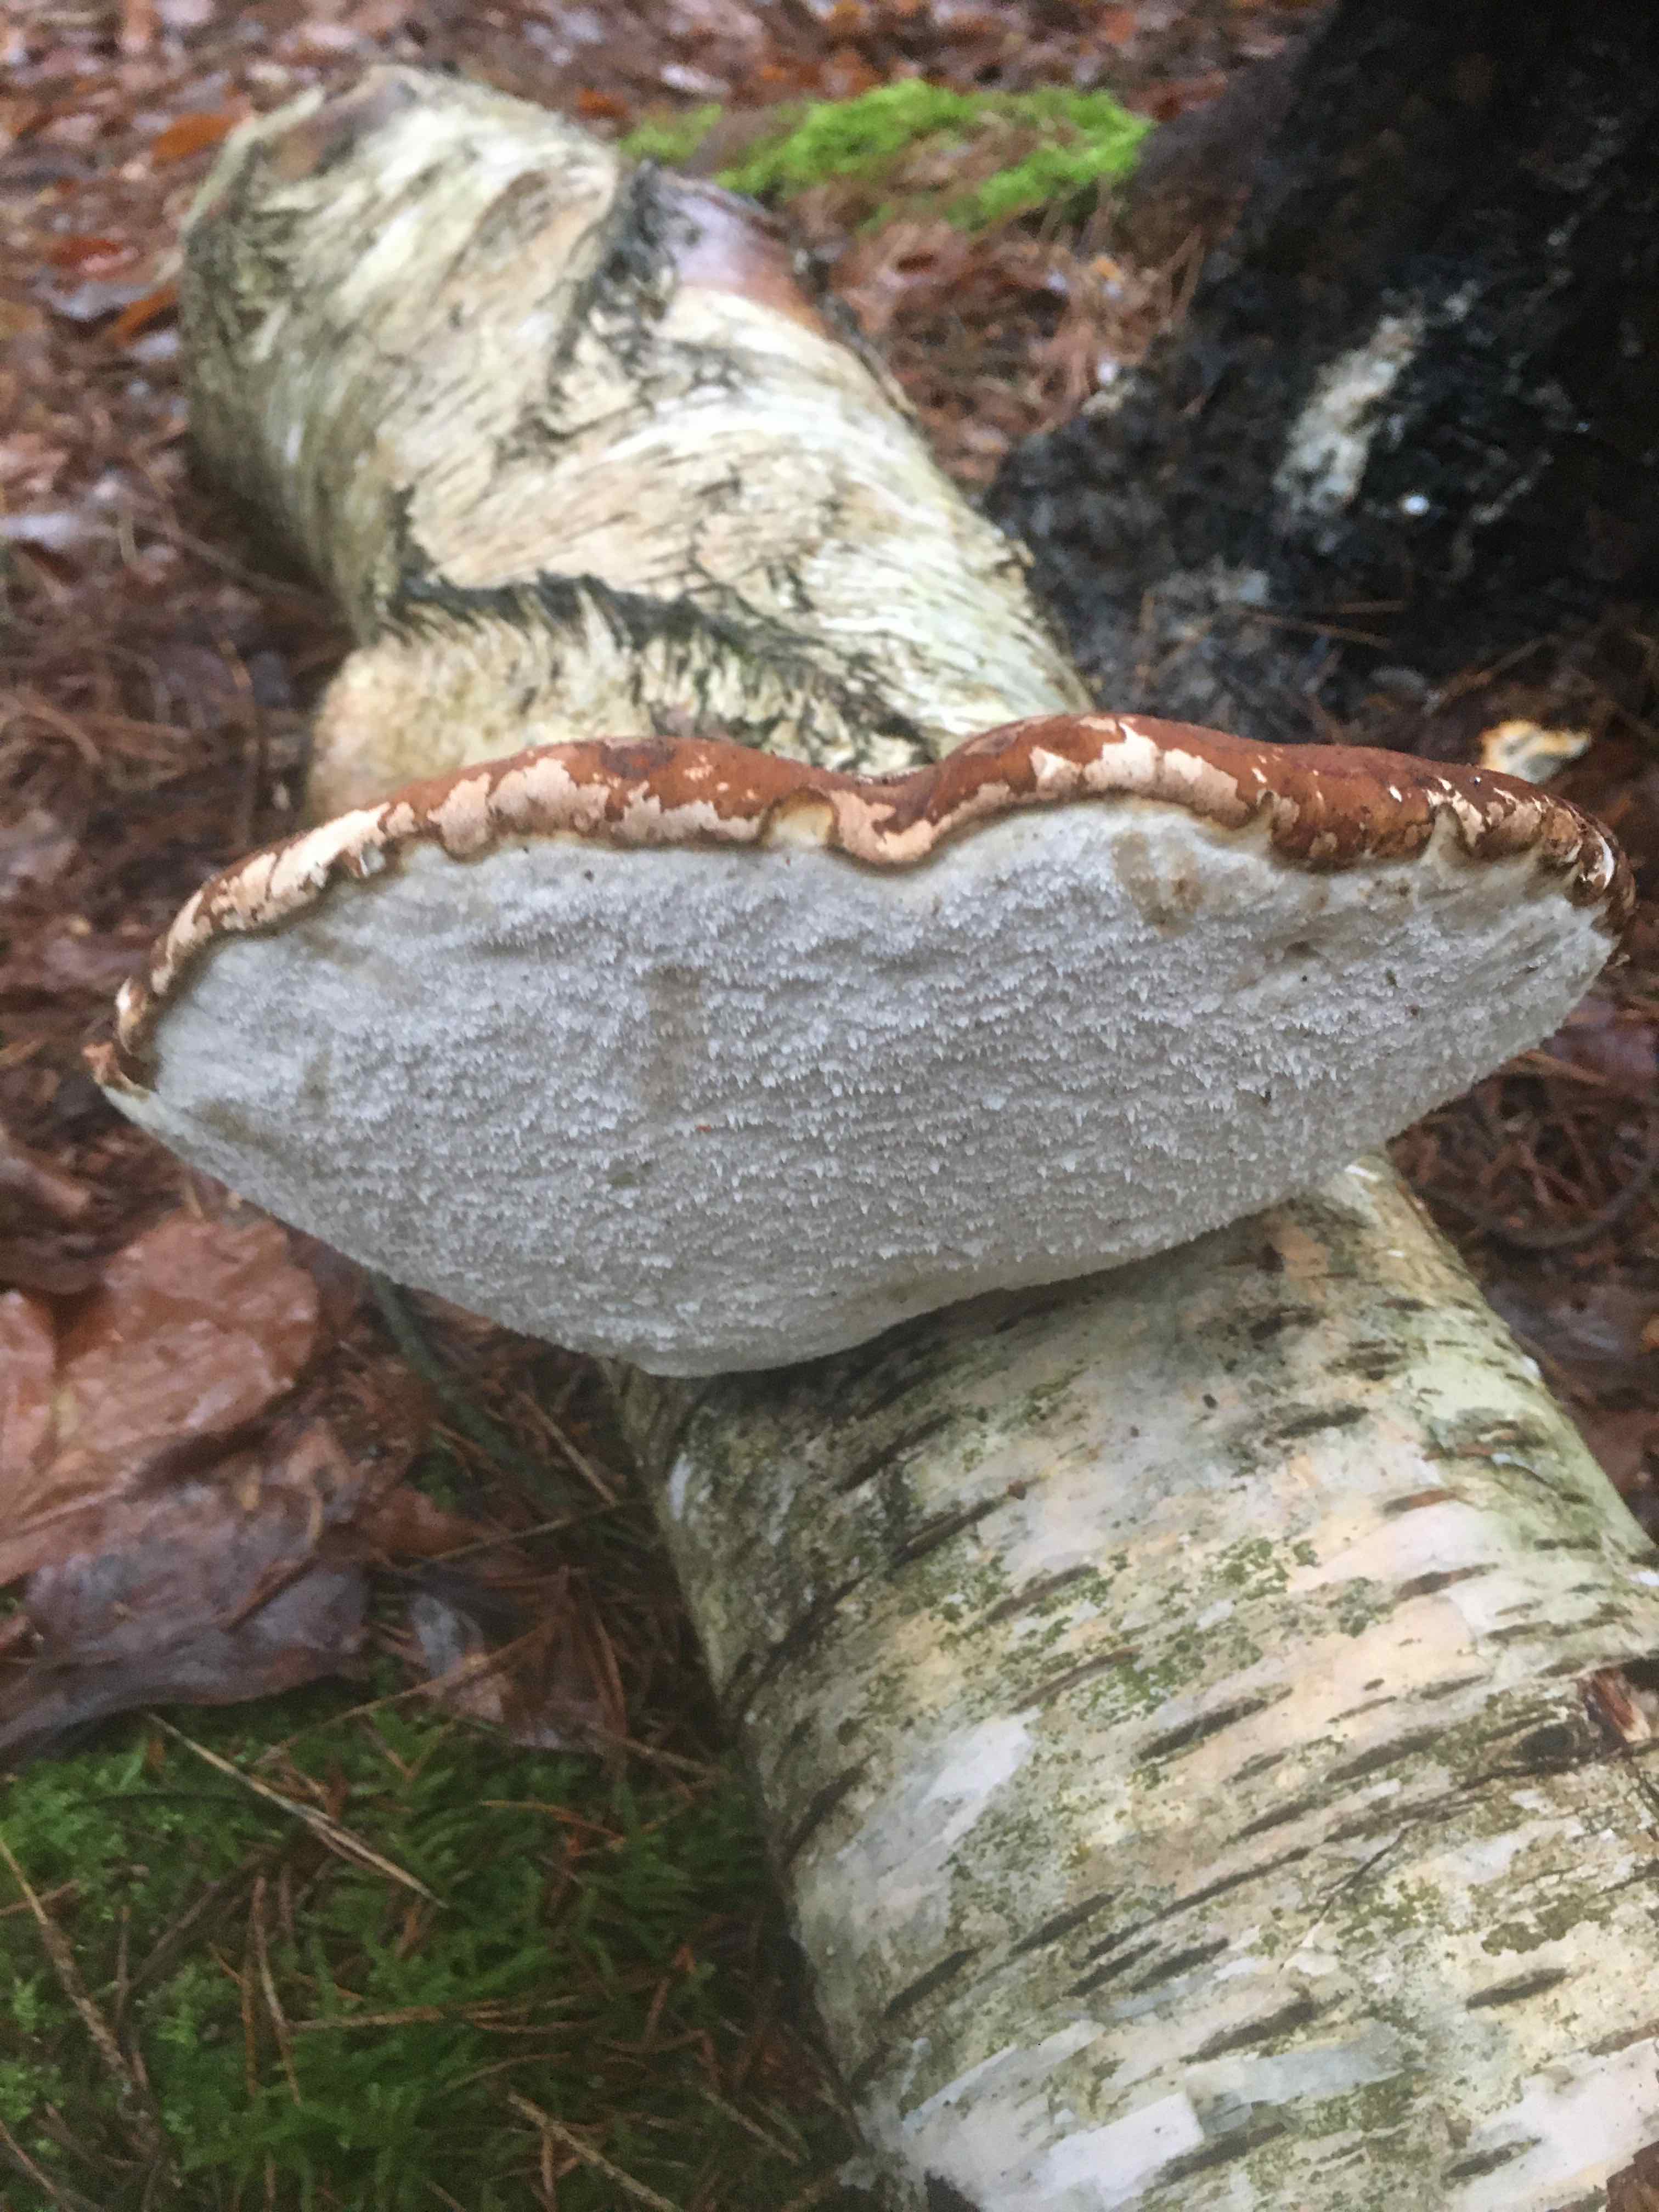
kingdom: Fungi
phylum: Basidiomycota
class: Agaricomycetes
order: Polyporales
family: Fomitopsidaceae
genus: Fomitopsis
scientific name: Fomitopsis betulina
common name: birkeporesvamp
